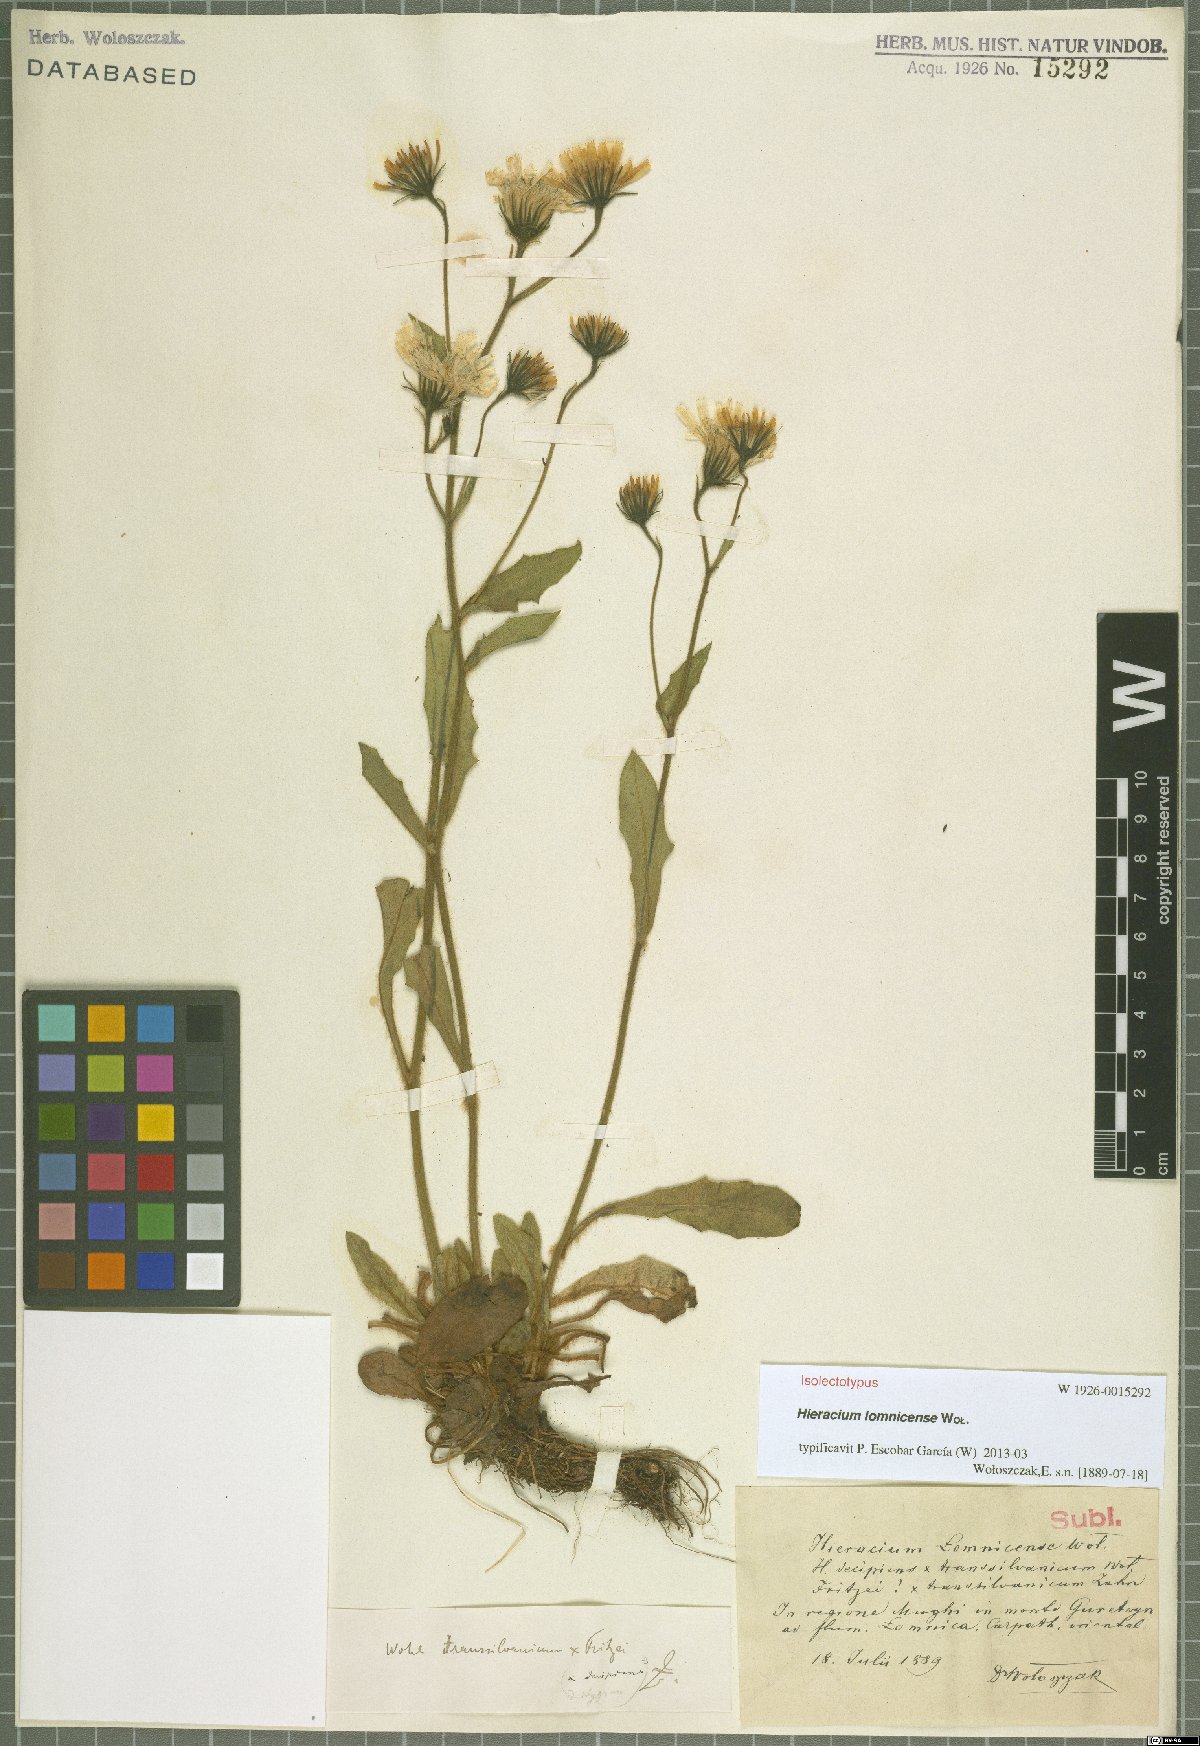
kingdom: Plantae
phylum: Tracheophyta
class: Magnoliopsida
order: Asterales
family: Asteraceae
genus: Hieracium
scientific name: Hieracium lomnicense
